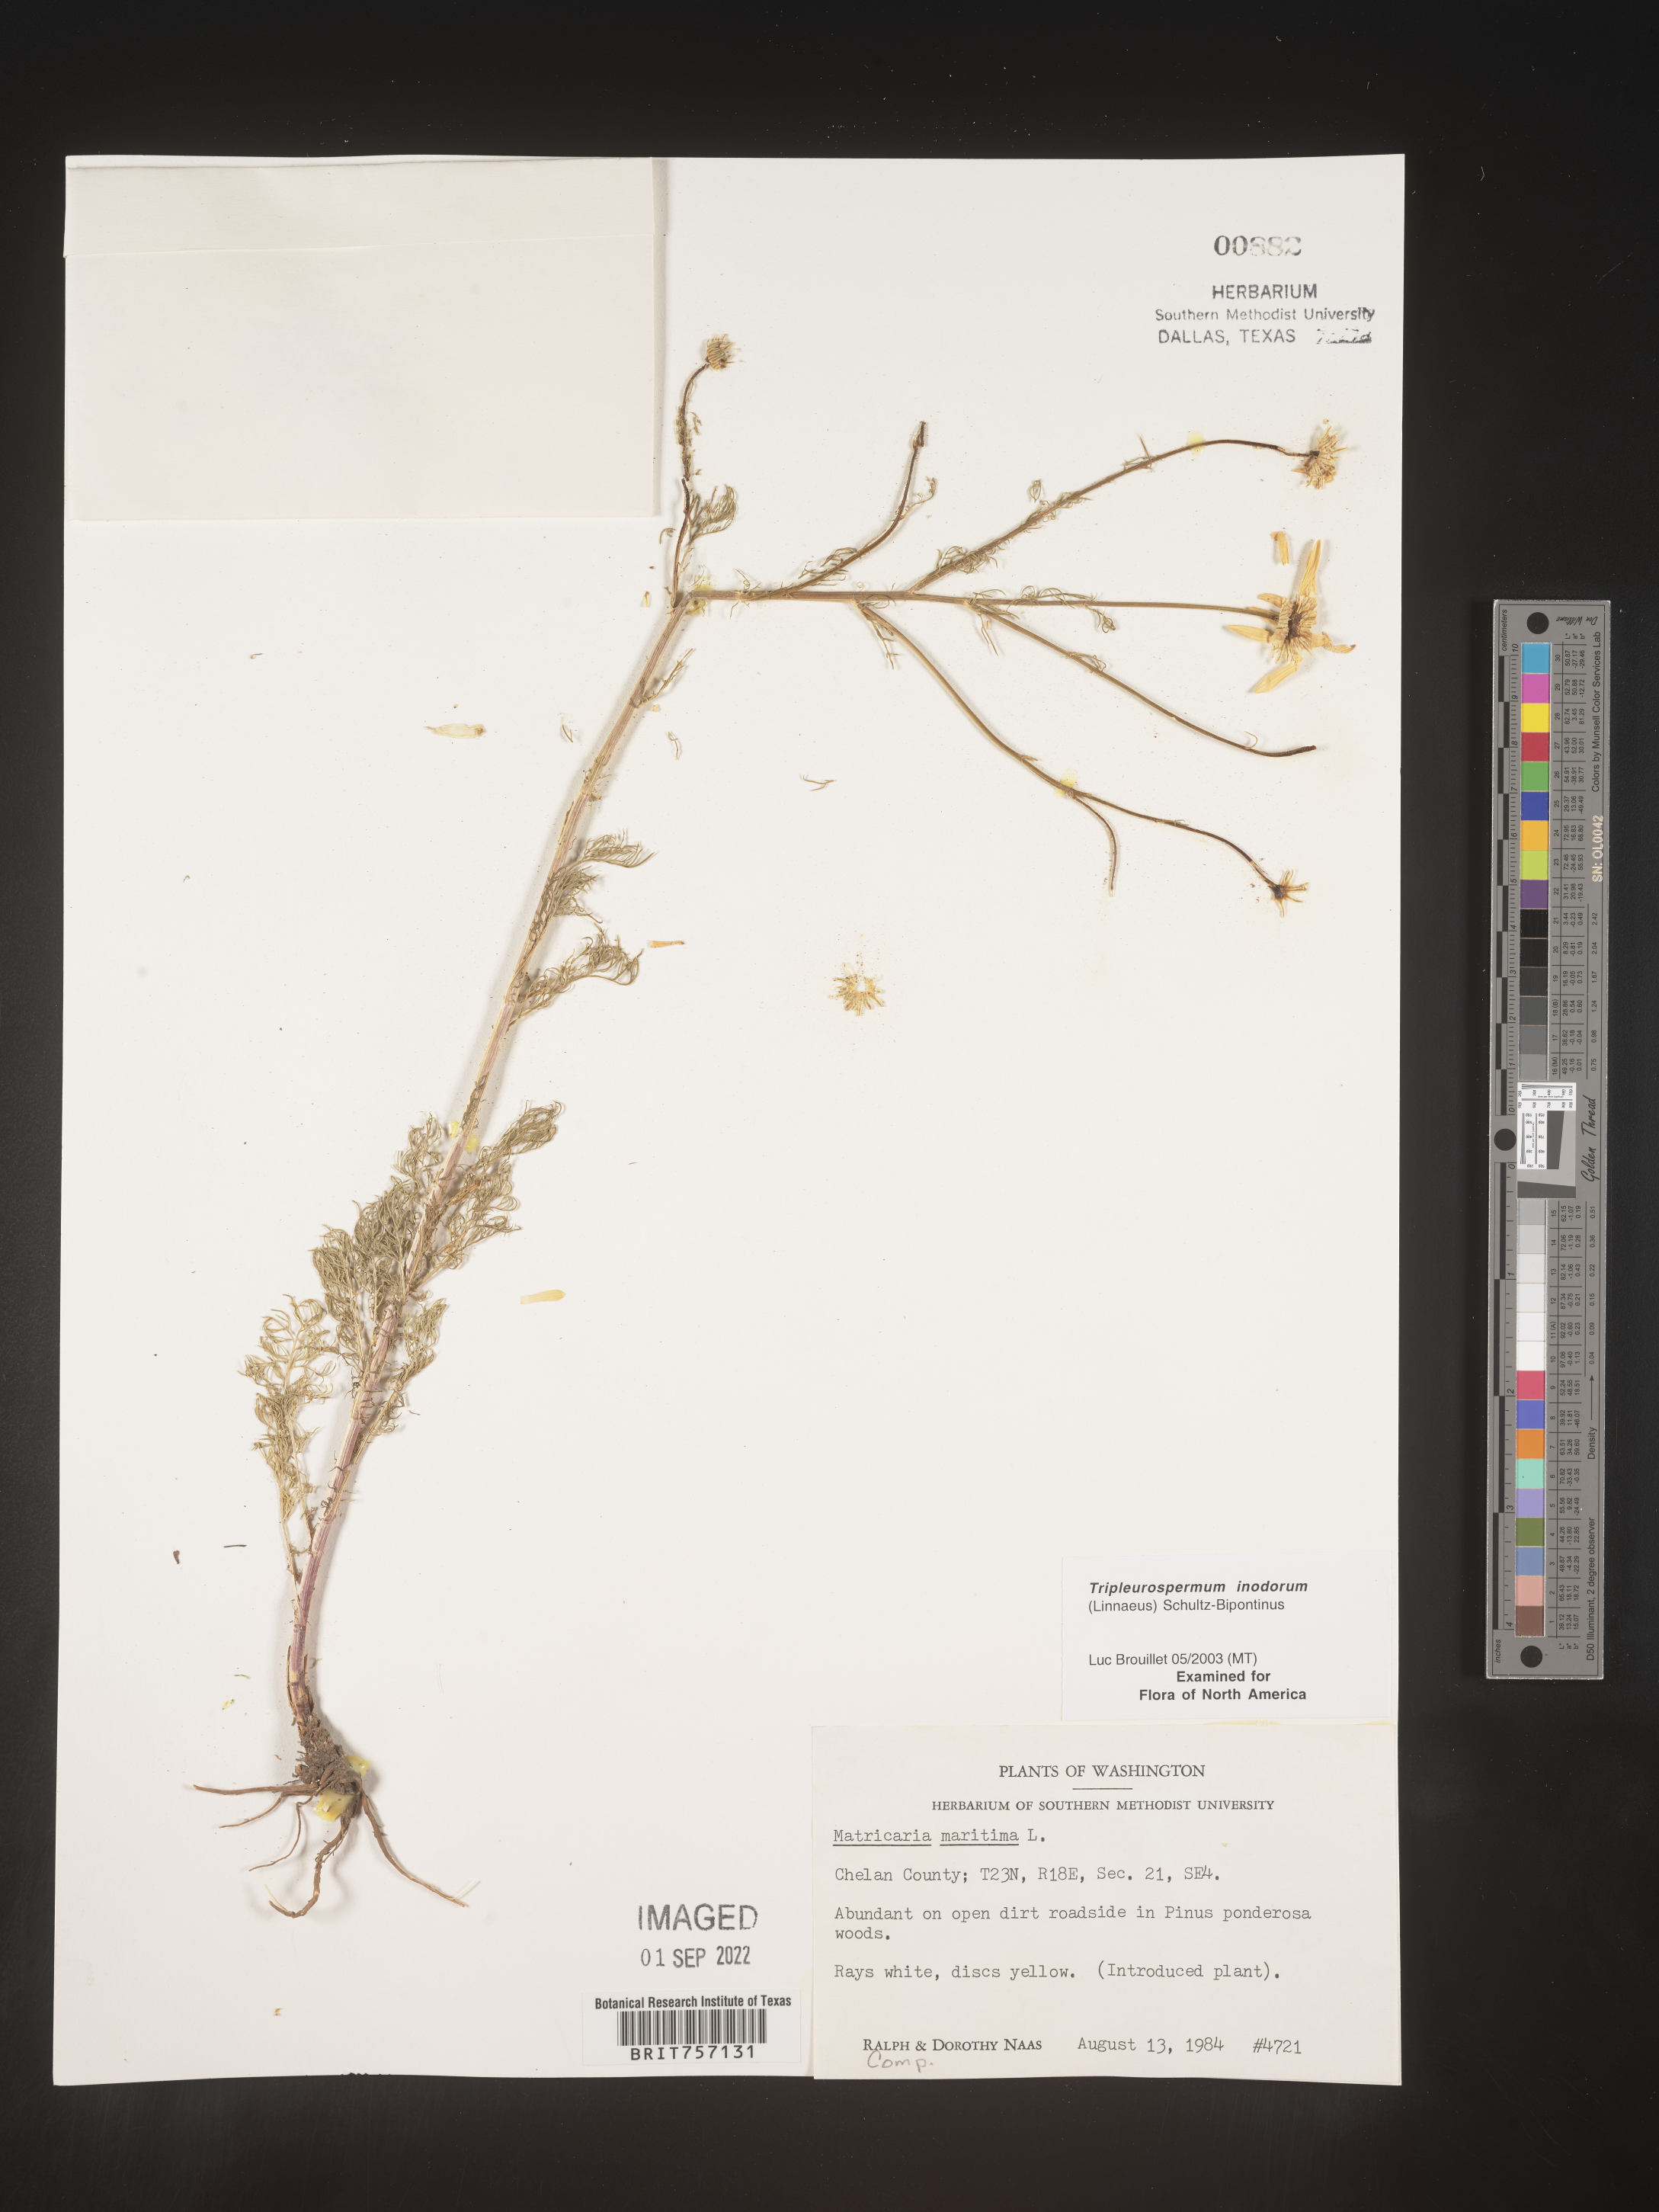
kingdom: Plantae
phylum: Tracheophyta
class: Magnoliopsida
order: Asterales
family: Asteraceae
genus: Tripleurospermum
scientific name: Tripleurospermum inodorum
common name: Scentless mayweed
